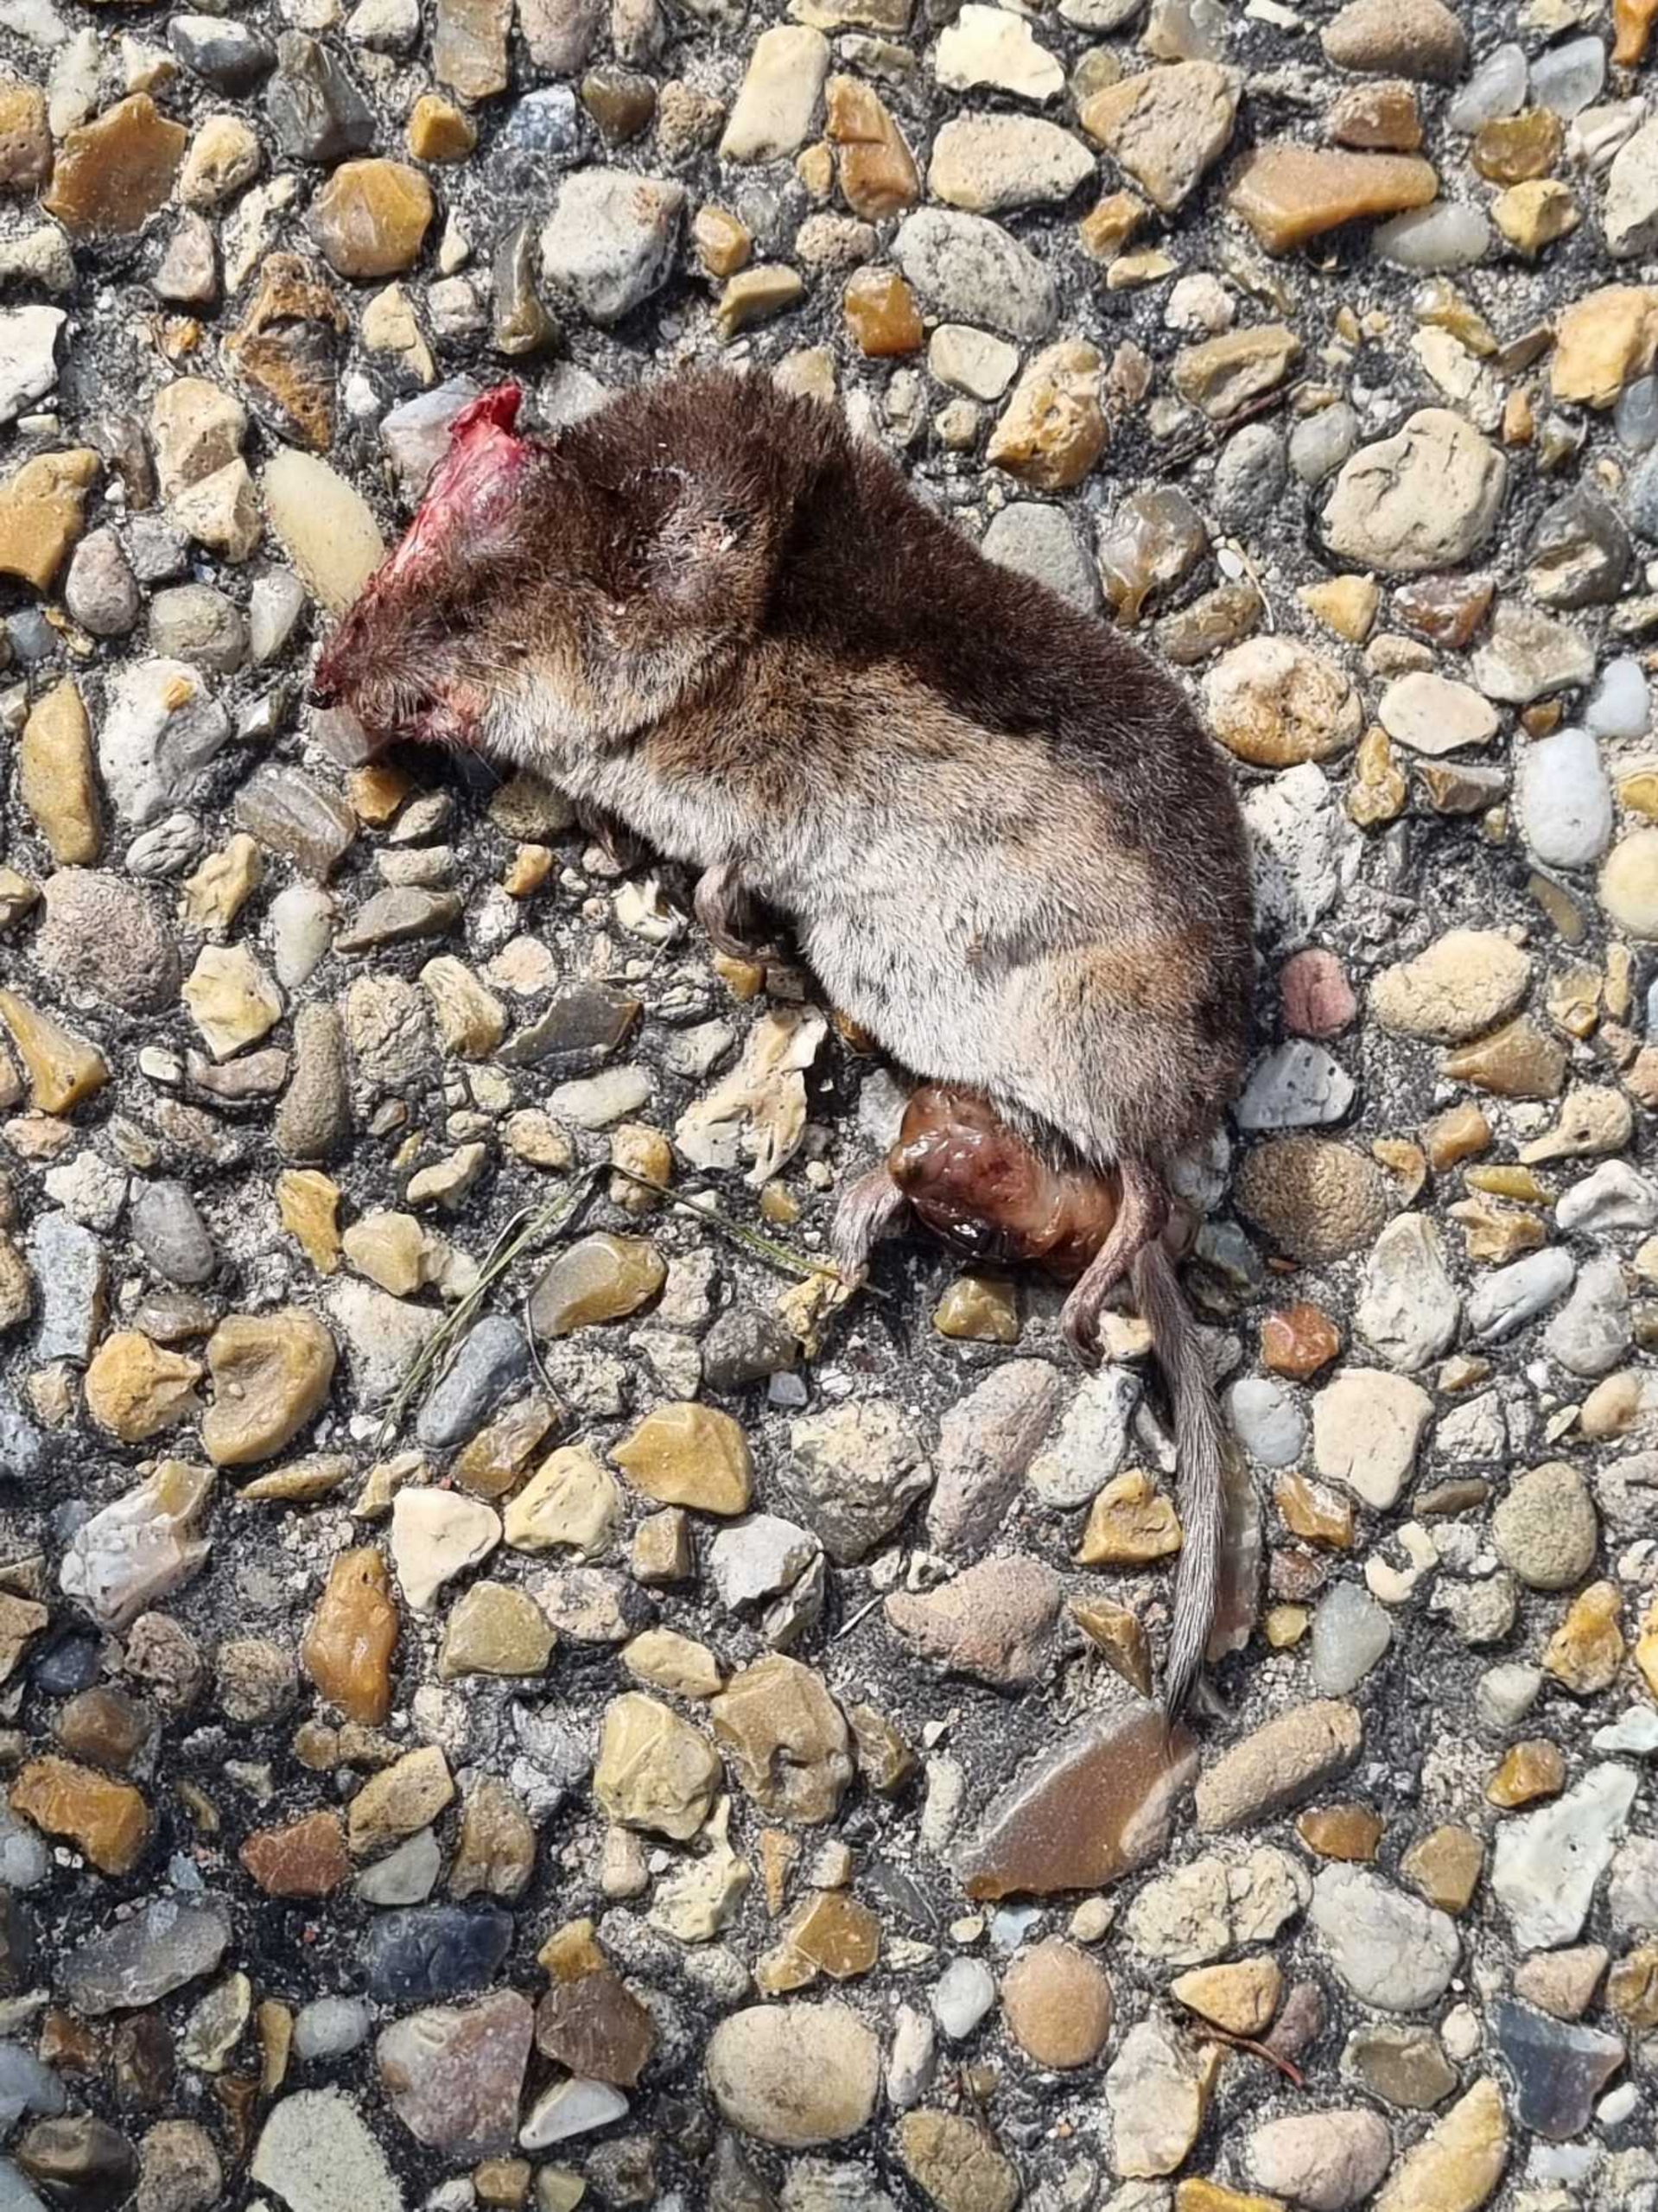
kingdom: Animalia
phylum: Chordata
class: Mammalia
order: Soricomorpha
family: Soricidae
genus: Sorex
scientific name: Sorex araneus
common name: Almindelig spidsmus
